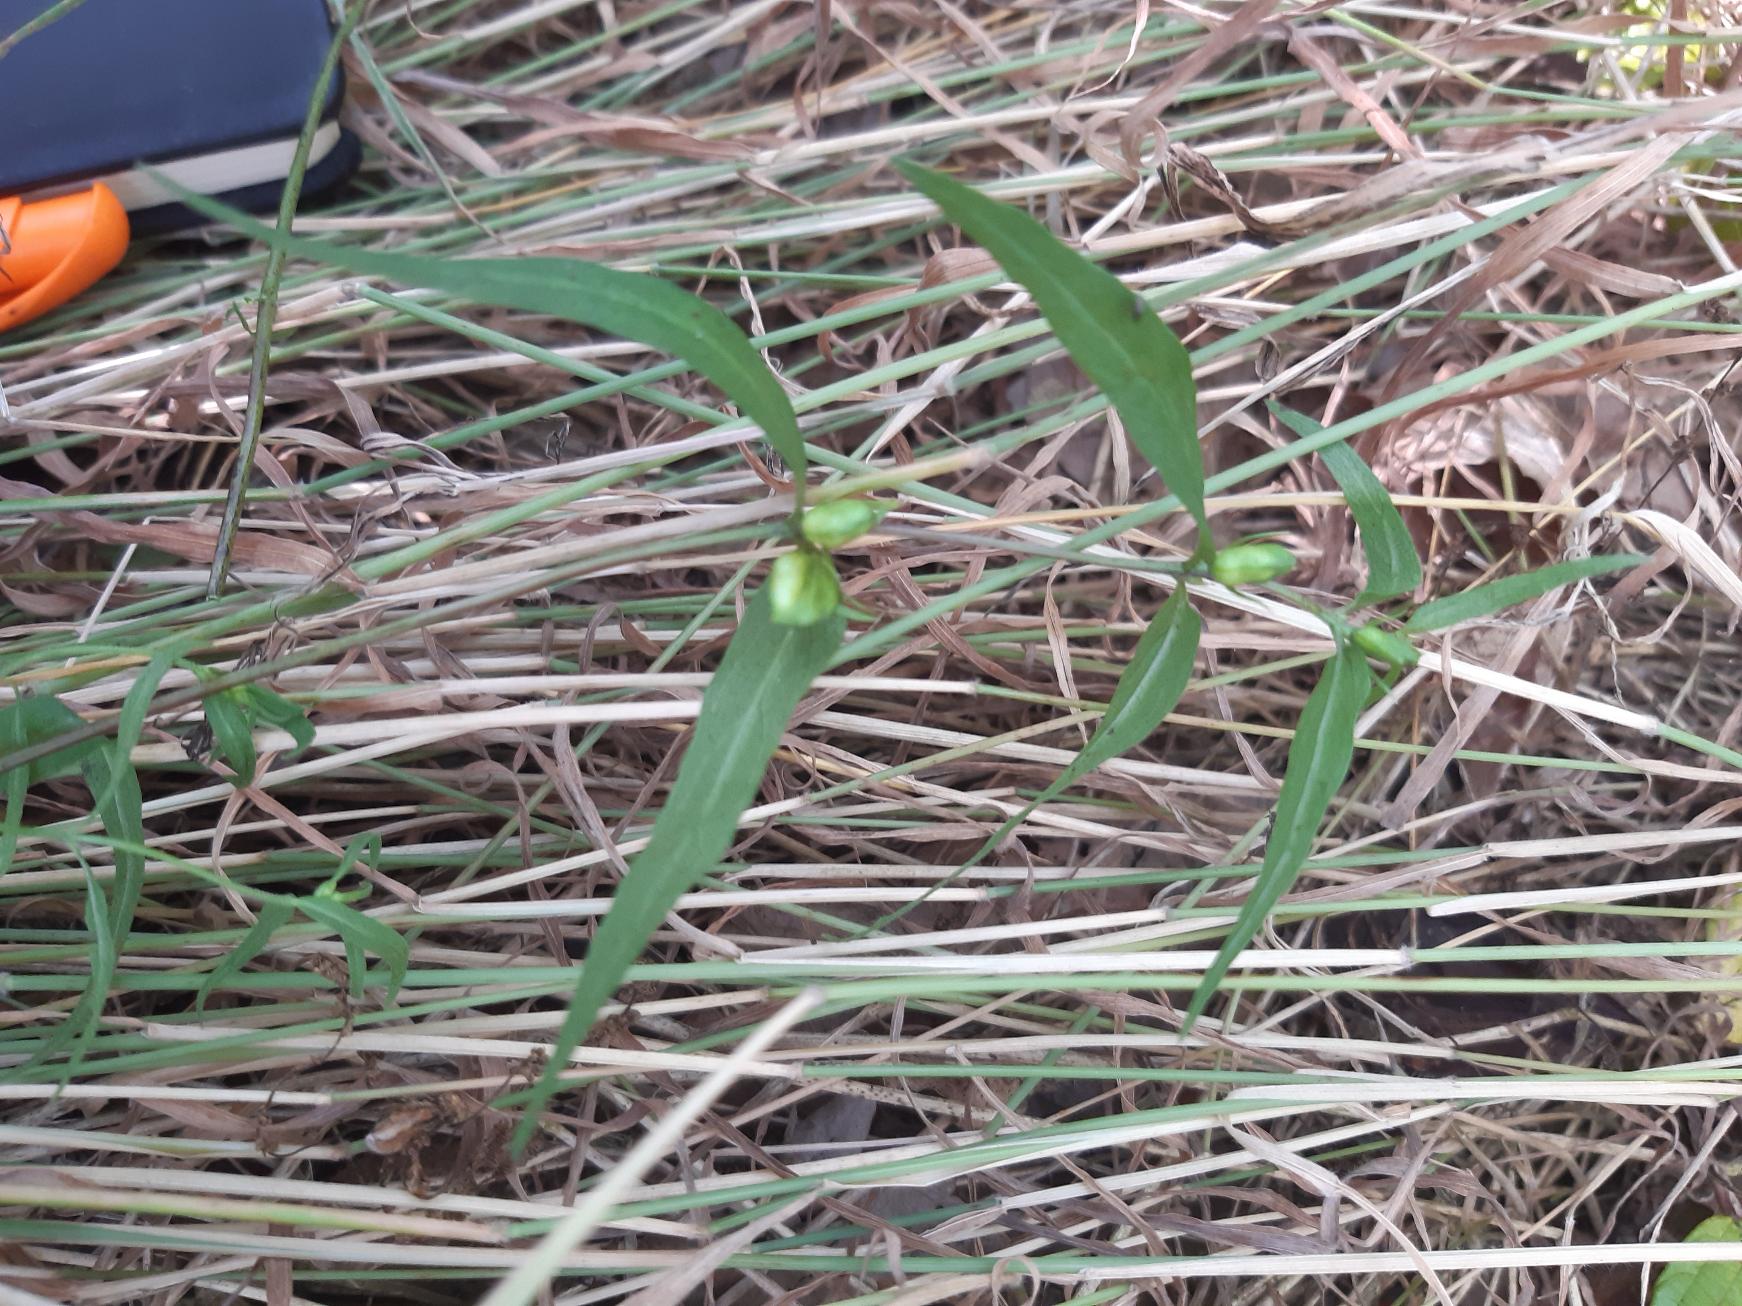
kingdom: Plantae
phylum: Tracheophyta
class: Magnoliopsida
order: Lamiales
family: Orobanchaceae
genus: Melampyrum
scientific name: Melampyrum pratense
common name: Almindelig kohvede
